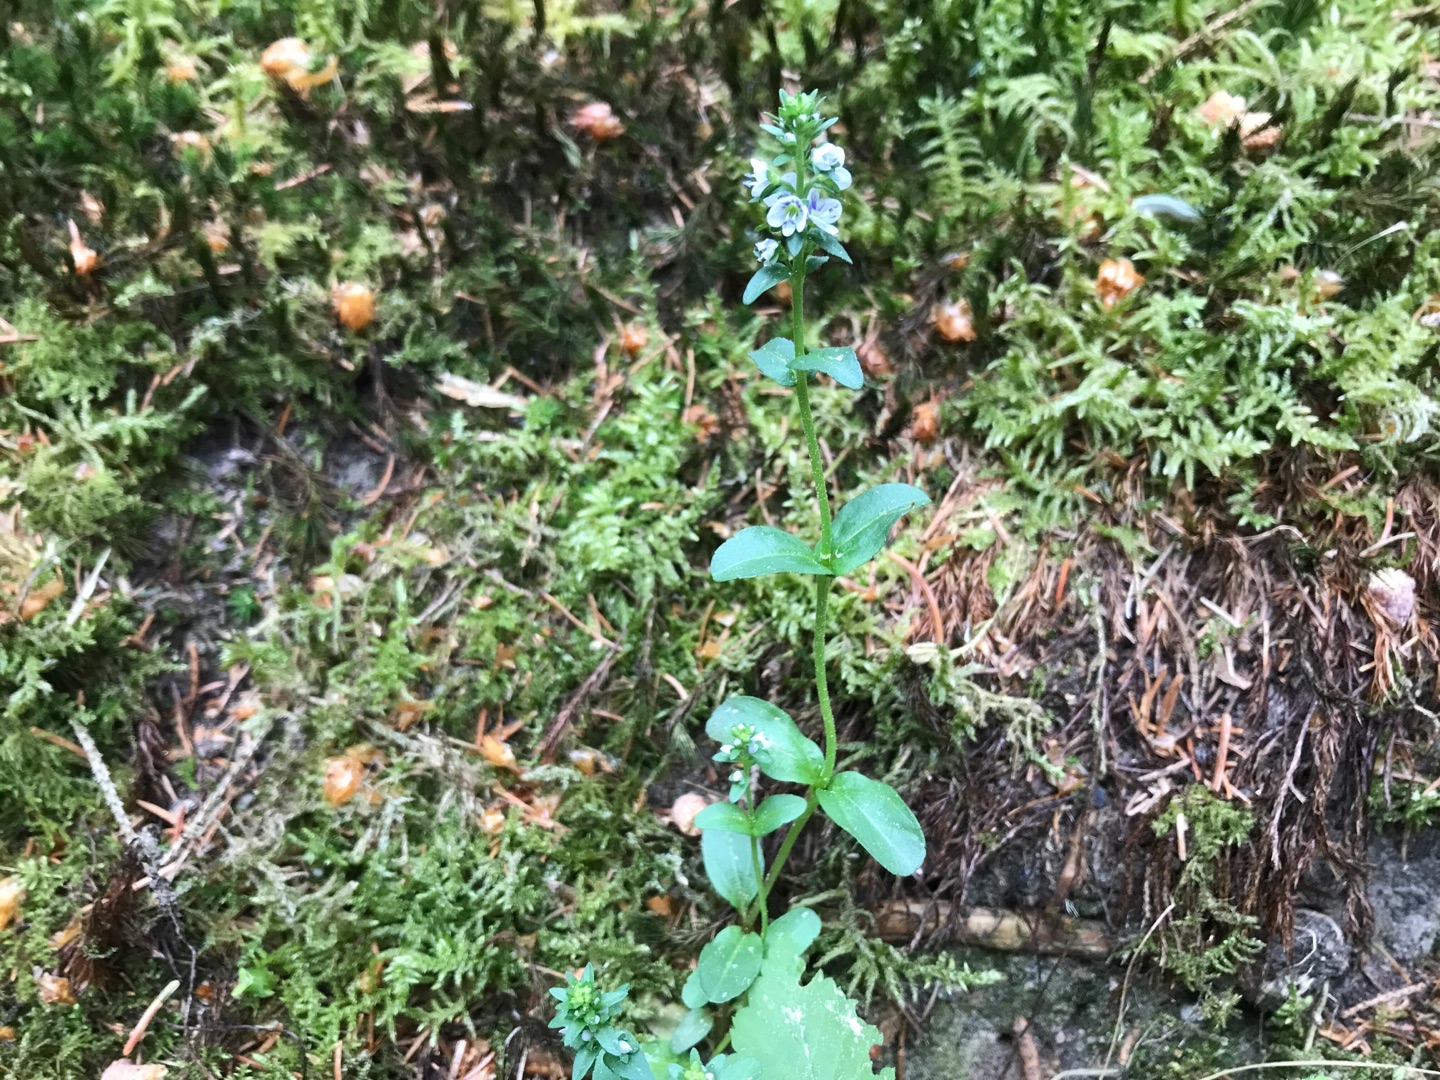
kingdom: Plantae
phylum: Tracheophyta
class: Magnoliopsida
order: Lamiales
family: Plantaginaceae
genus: Veronica
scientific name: Veronica serpyllifolia
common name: Glat ærenpris
